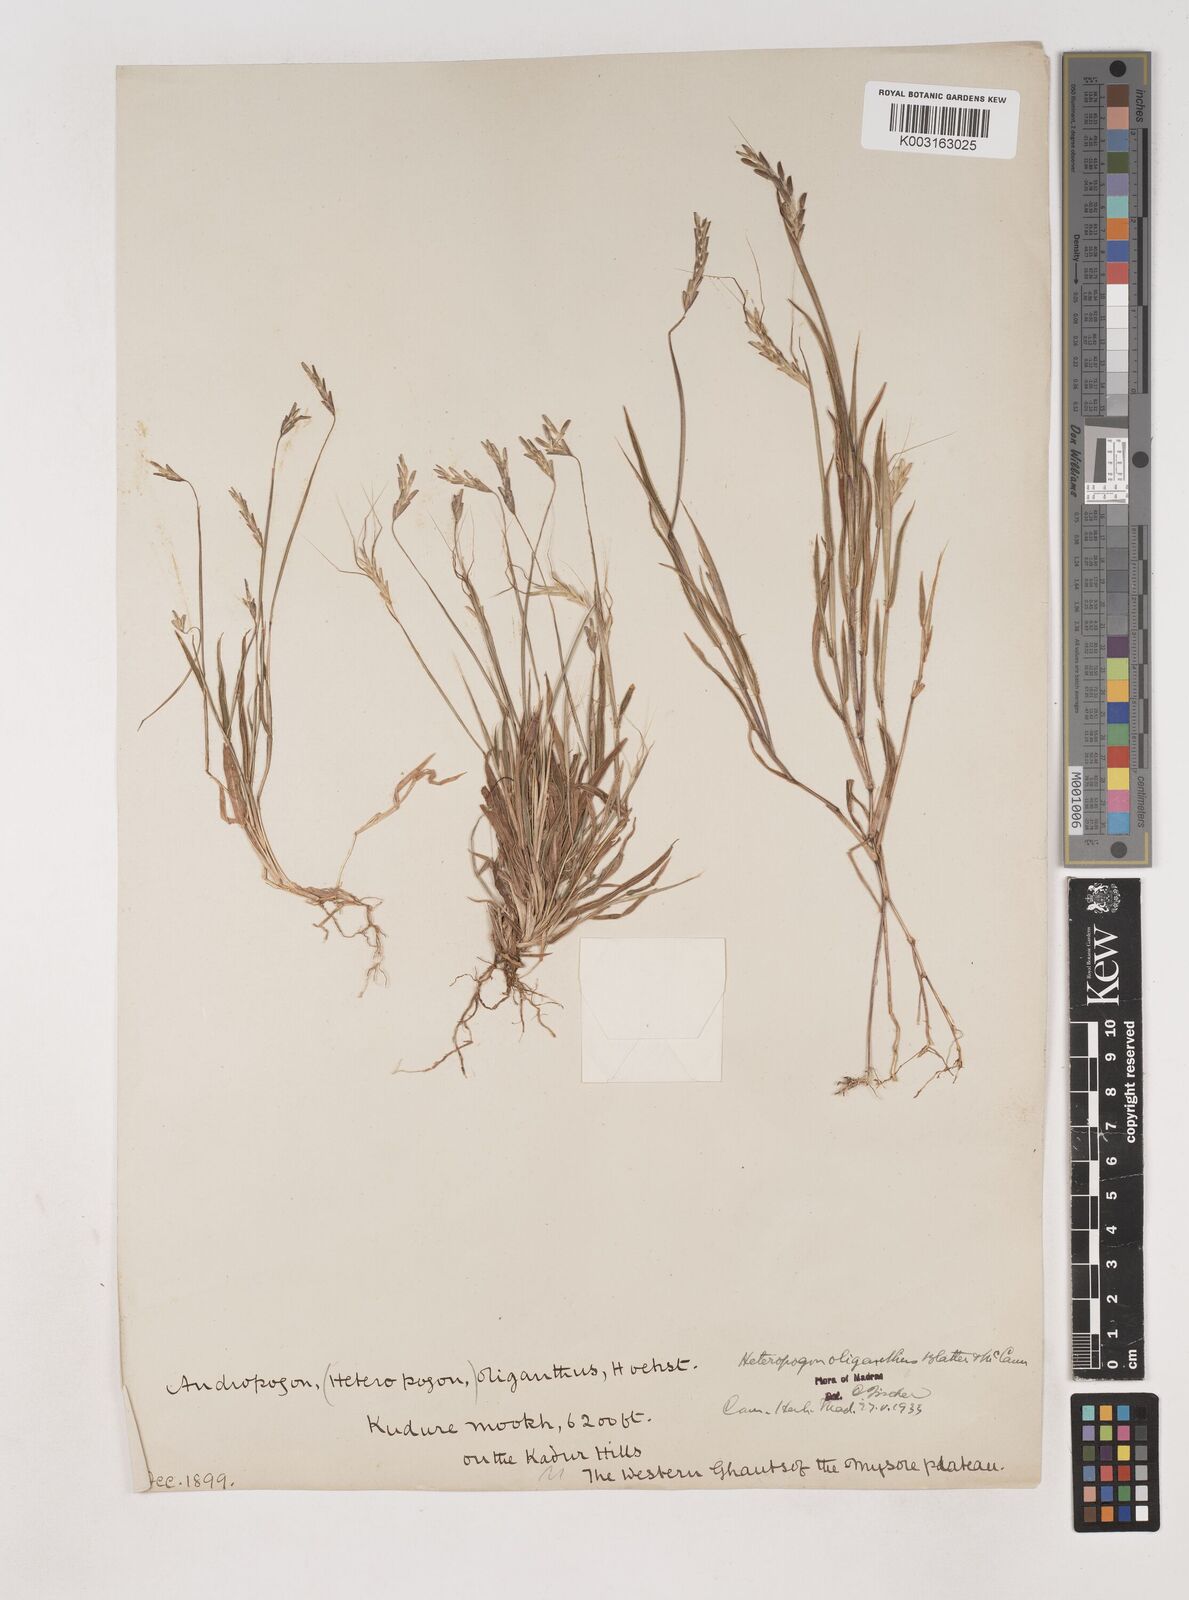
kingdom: Plantae
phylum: Tracheophyta
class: Liliopsida
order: Poales
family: Poaceae
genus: Euclasta
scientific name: Euclasta oligantha
